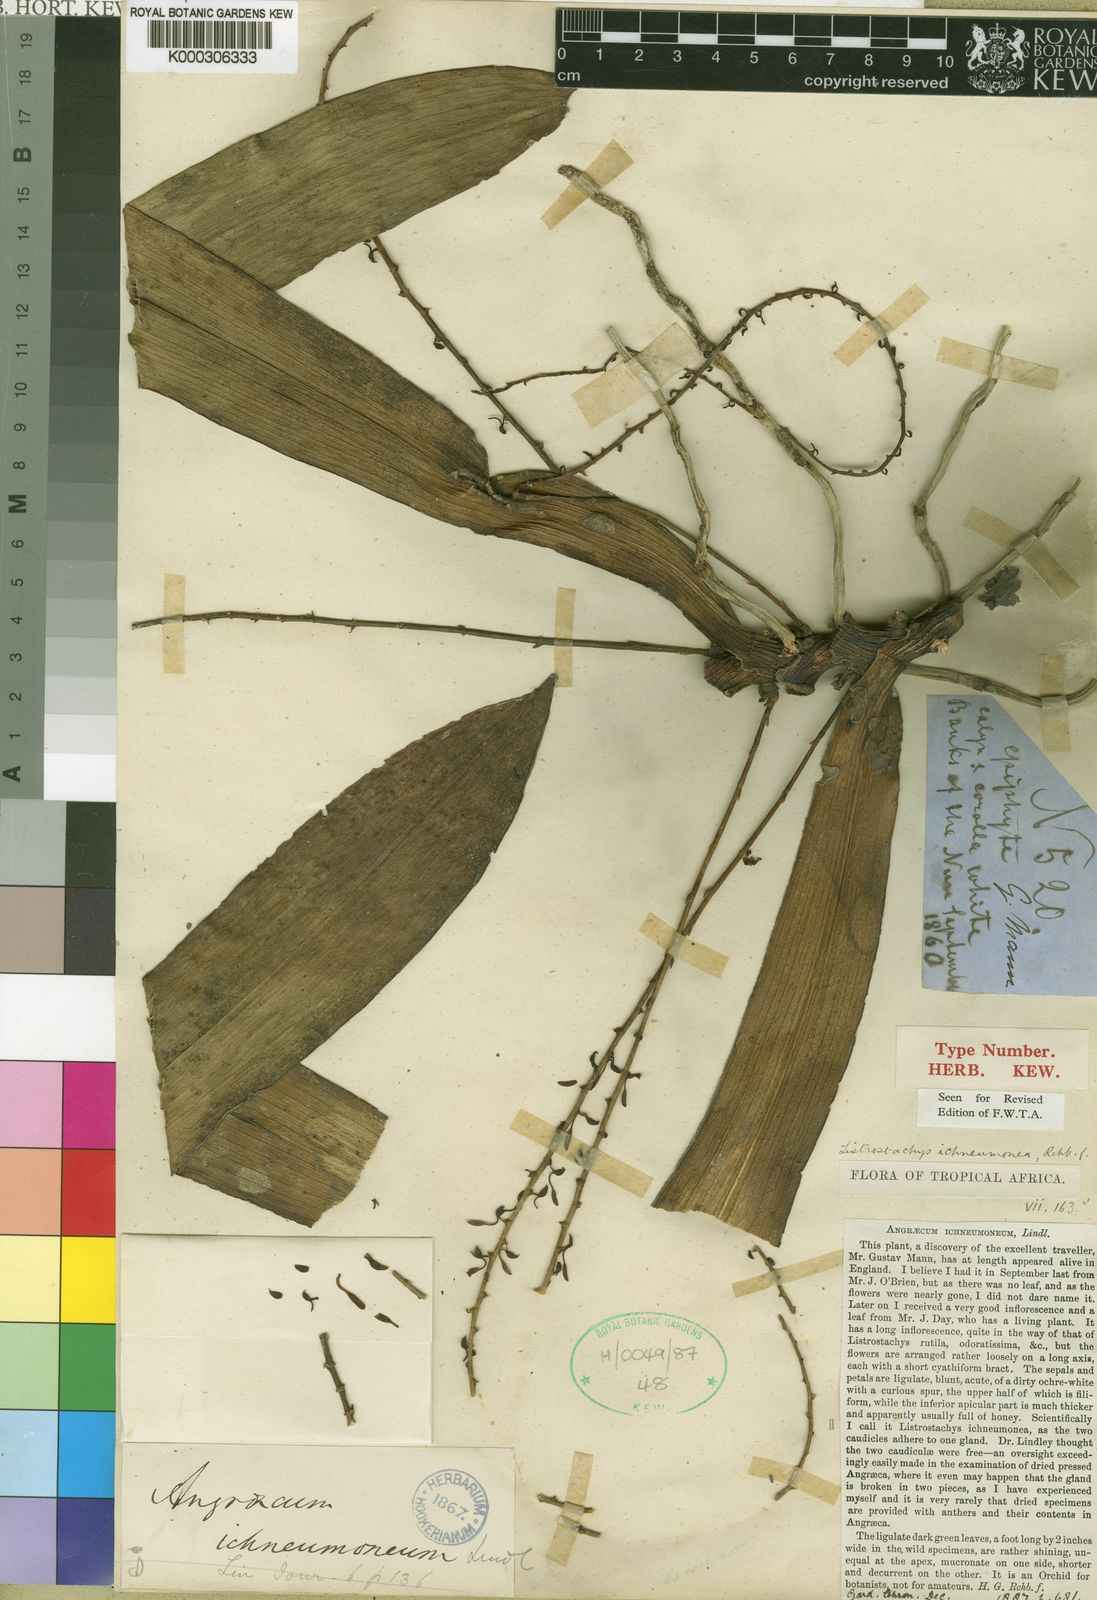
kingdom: Plantae
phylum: Tracheophyta
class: Liliopsida
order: Asparagales
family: Orchidaceae
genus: Diaphananthe
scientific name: Diaphananthe ichneumonea
